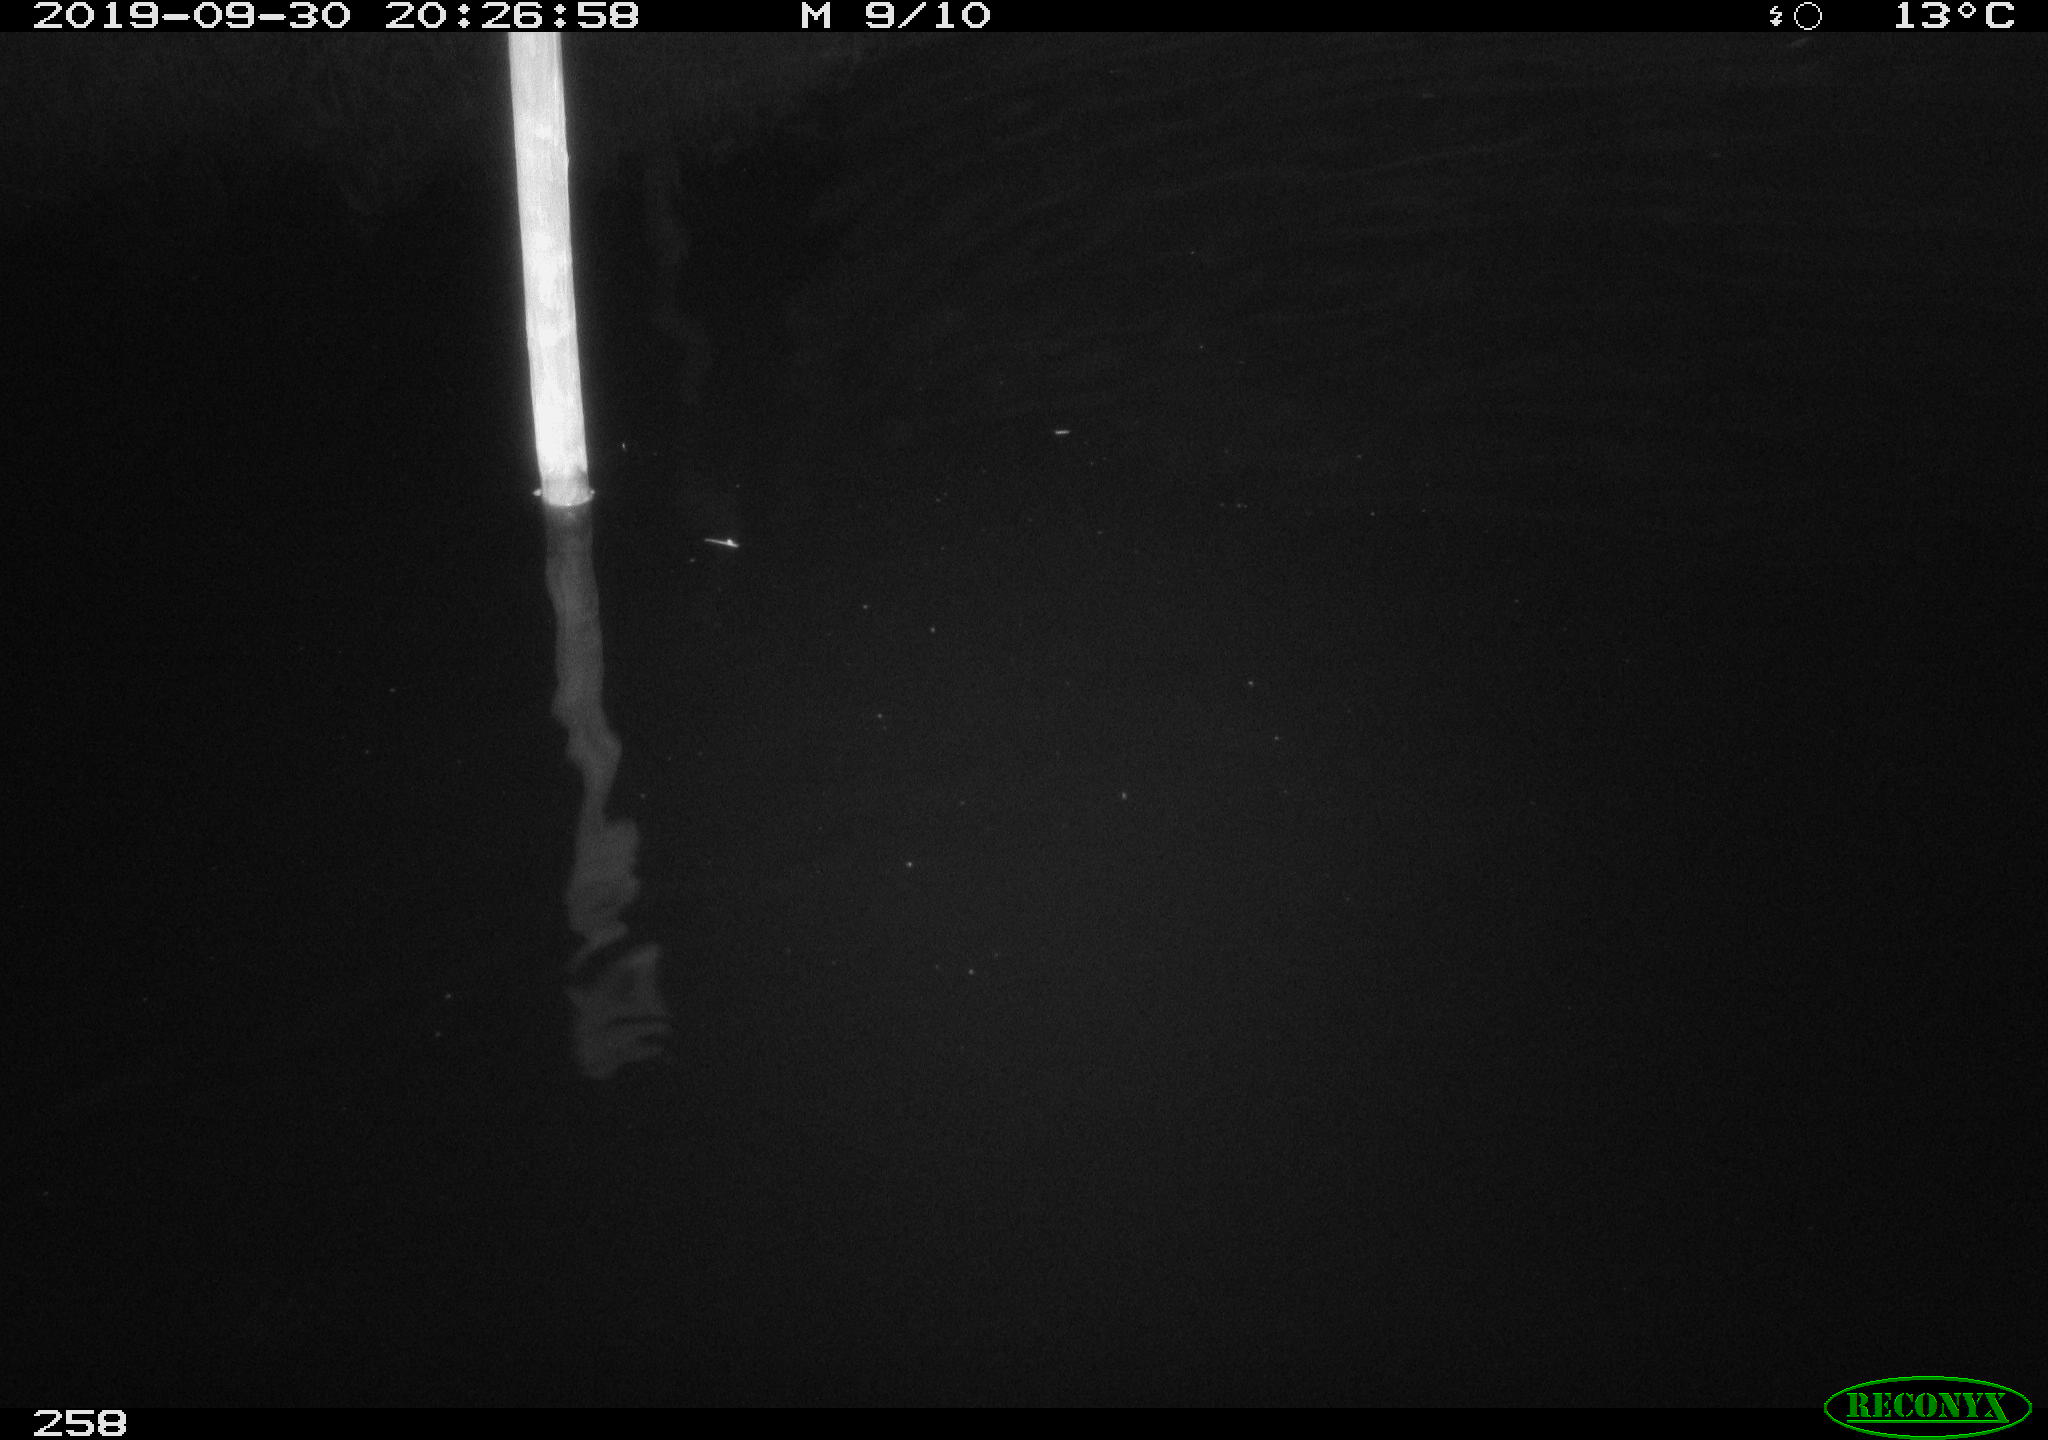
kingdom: Animalia
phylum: Chordata
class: Aves
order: Anseriformes
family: Anatidae
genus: Anas
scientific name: Anas platyrhynchos
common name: Mallard
